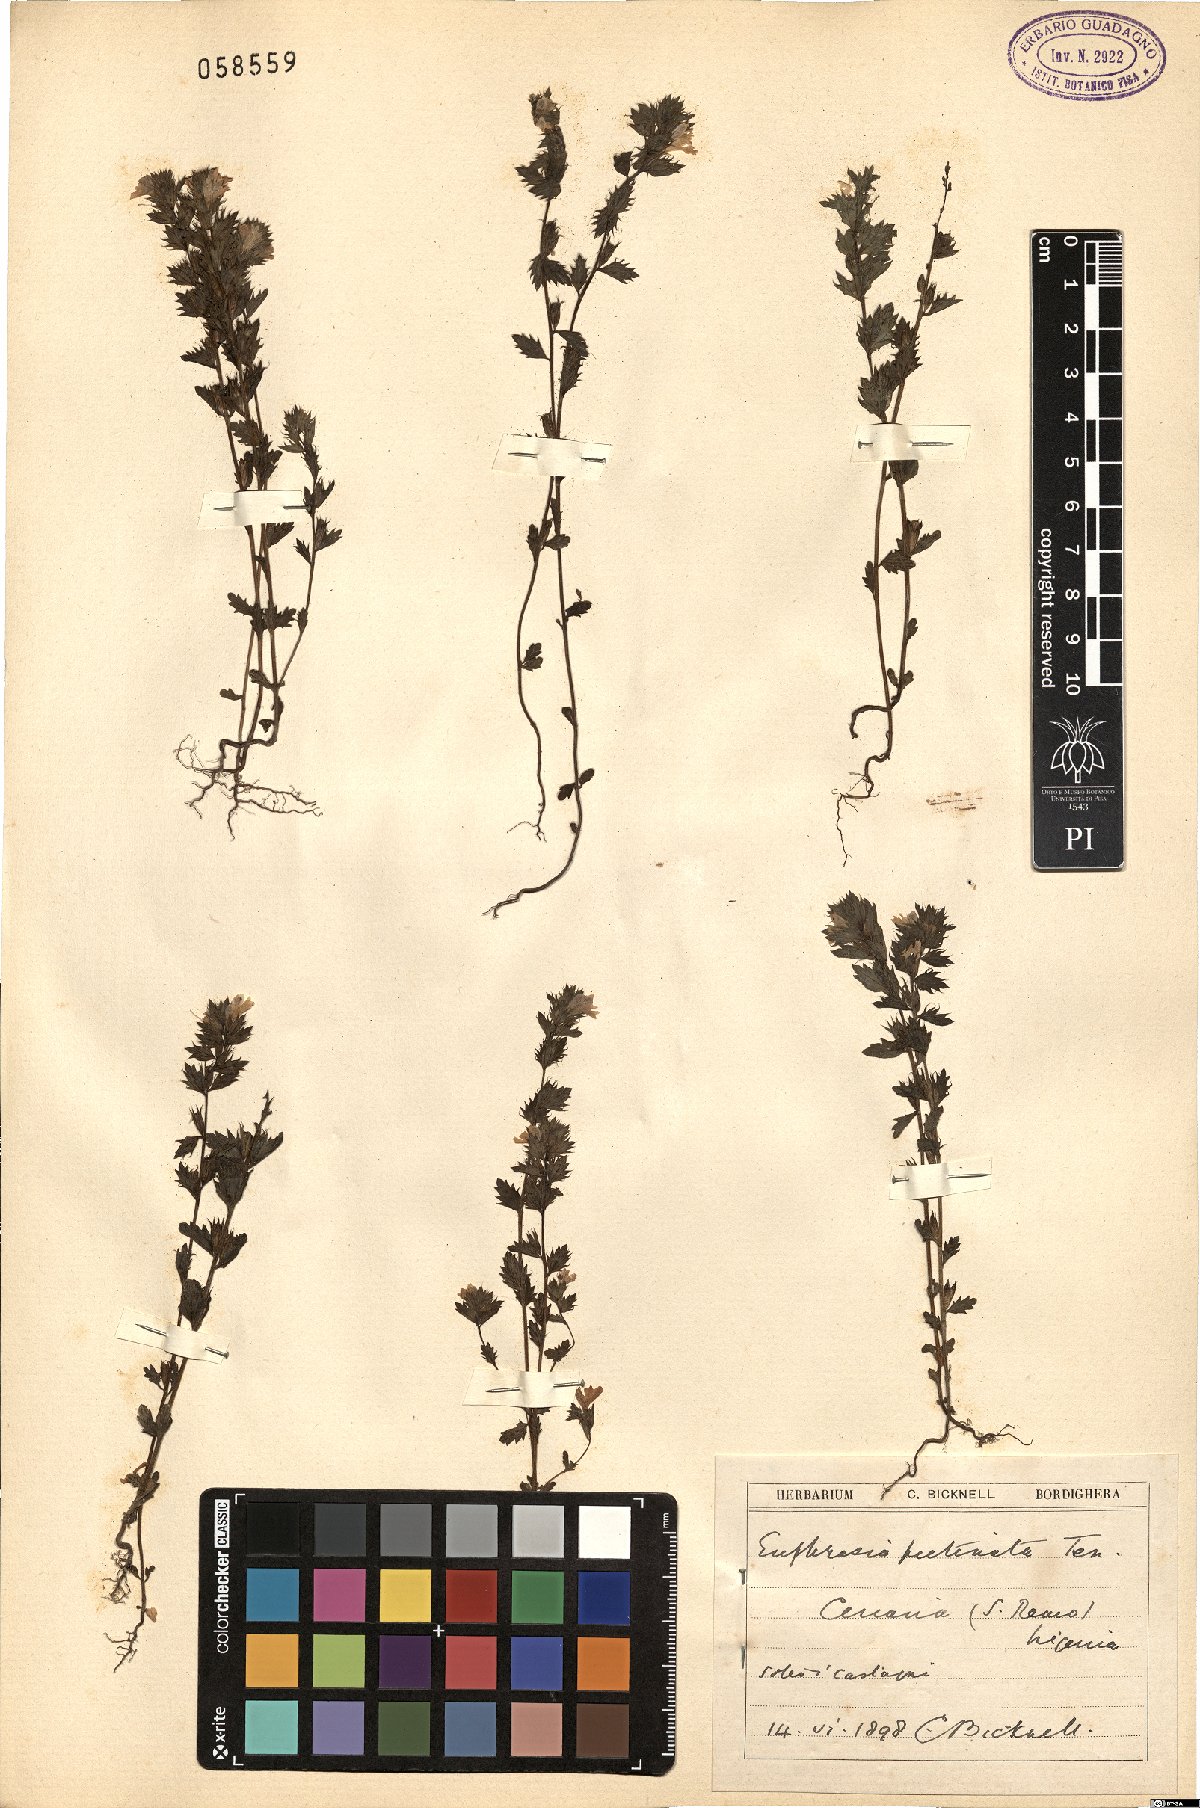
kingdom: Plantae
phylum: Tracheophyta
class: Magnoliopsida
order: Lamiales
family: Orobanchaceae
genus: Euphrasia
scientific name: Euphrasia pectinata
